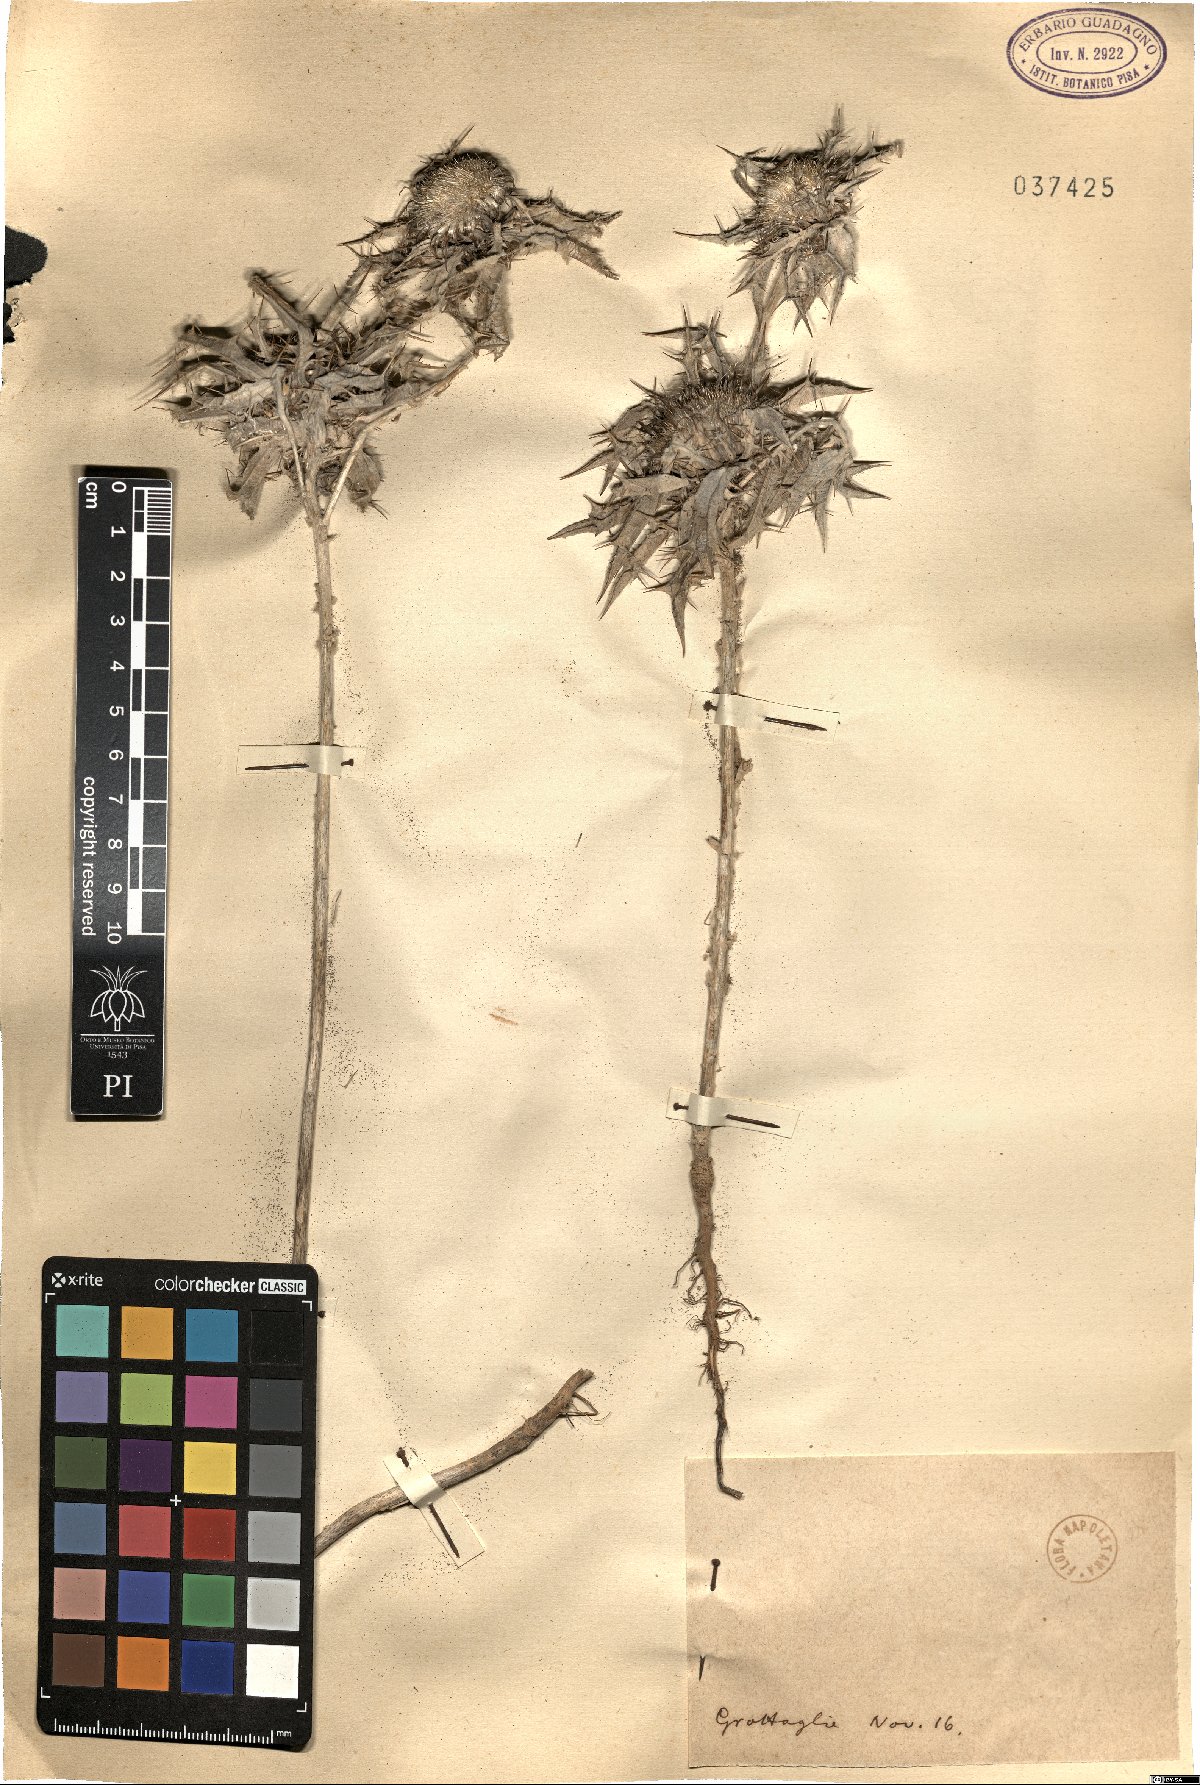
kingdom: Plantae
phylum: Tracheophyta
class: Magnoliopsida
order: Asterales
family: Asteraceae
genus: Carlina
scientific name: Carlina
